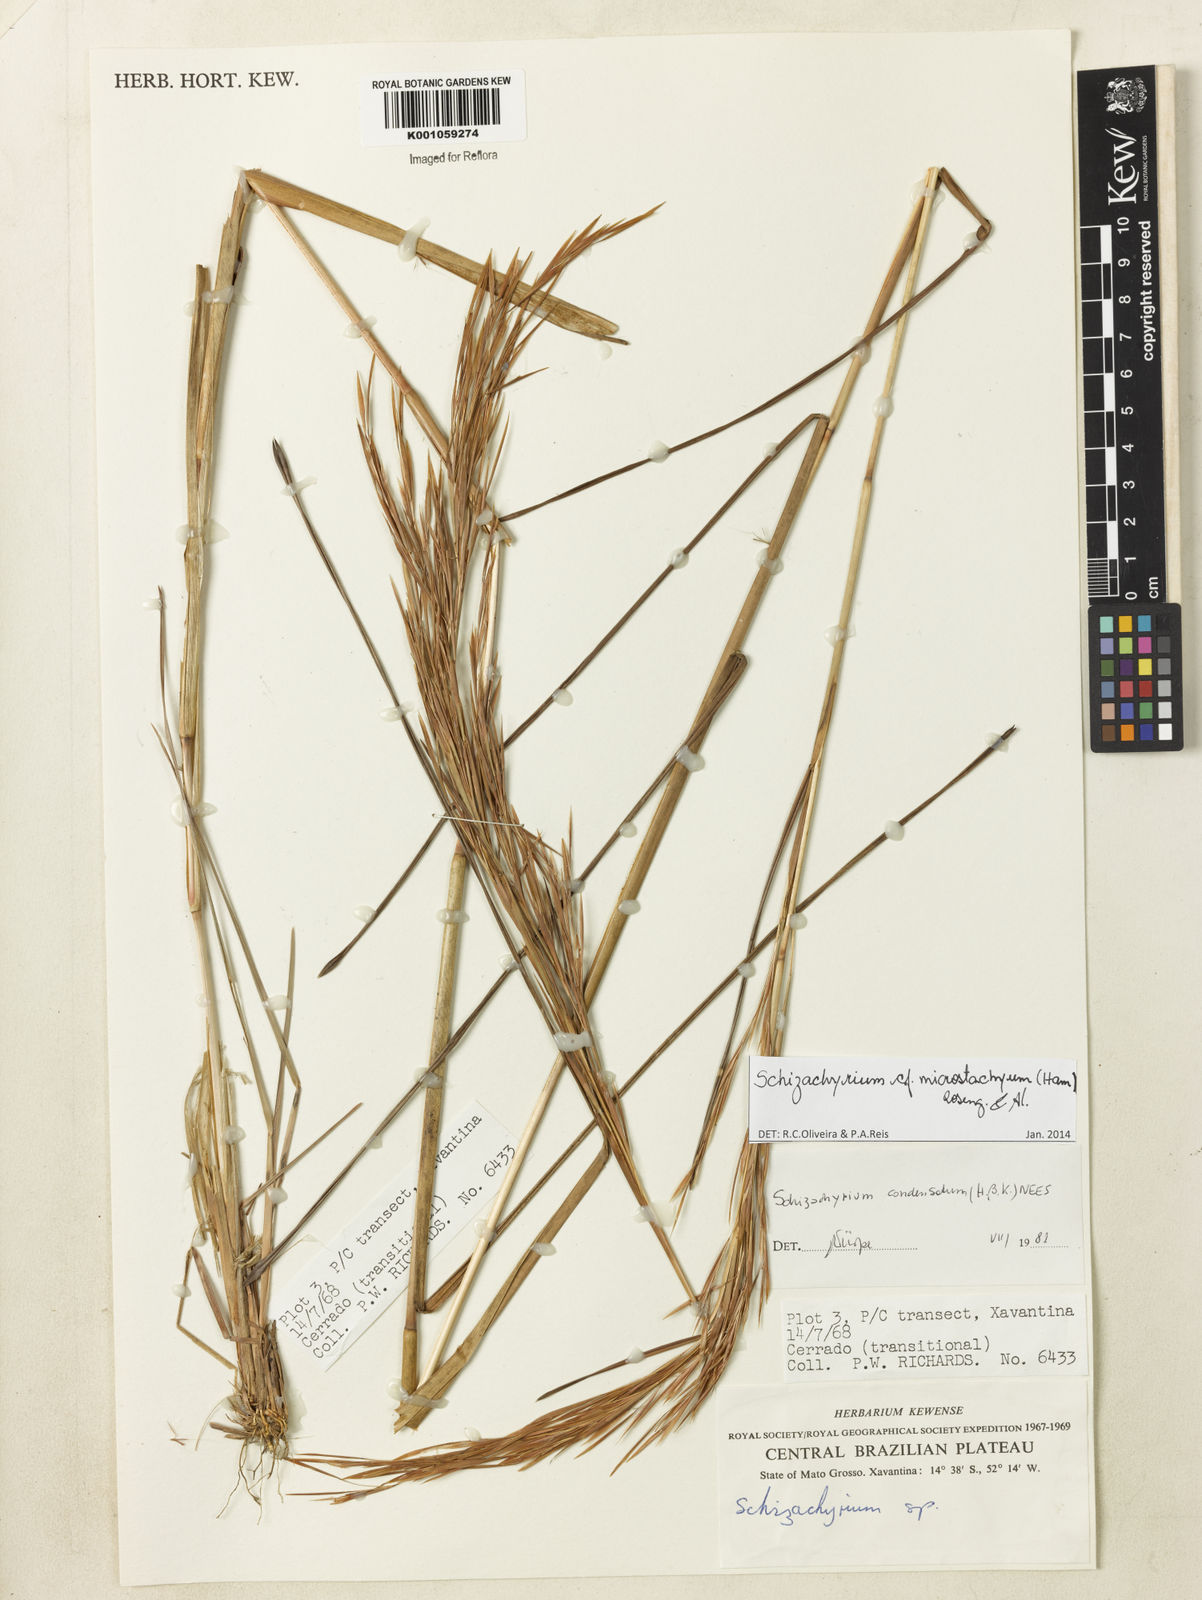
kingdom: Plantae
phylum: Tracheophyta
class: Liliopsida
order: Poales
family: Poaceae
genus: Schizachyrium
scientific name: Schizachyrium
